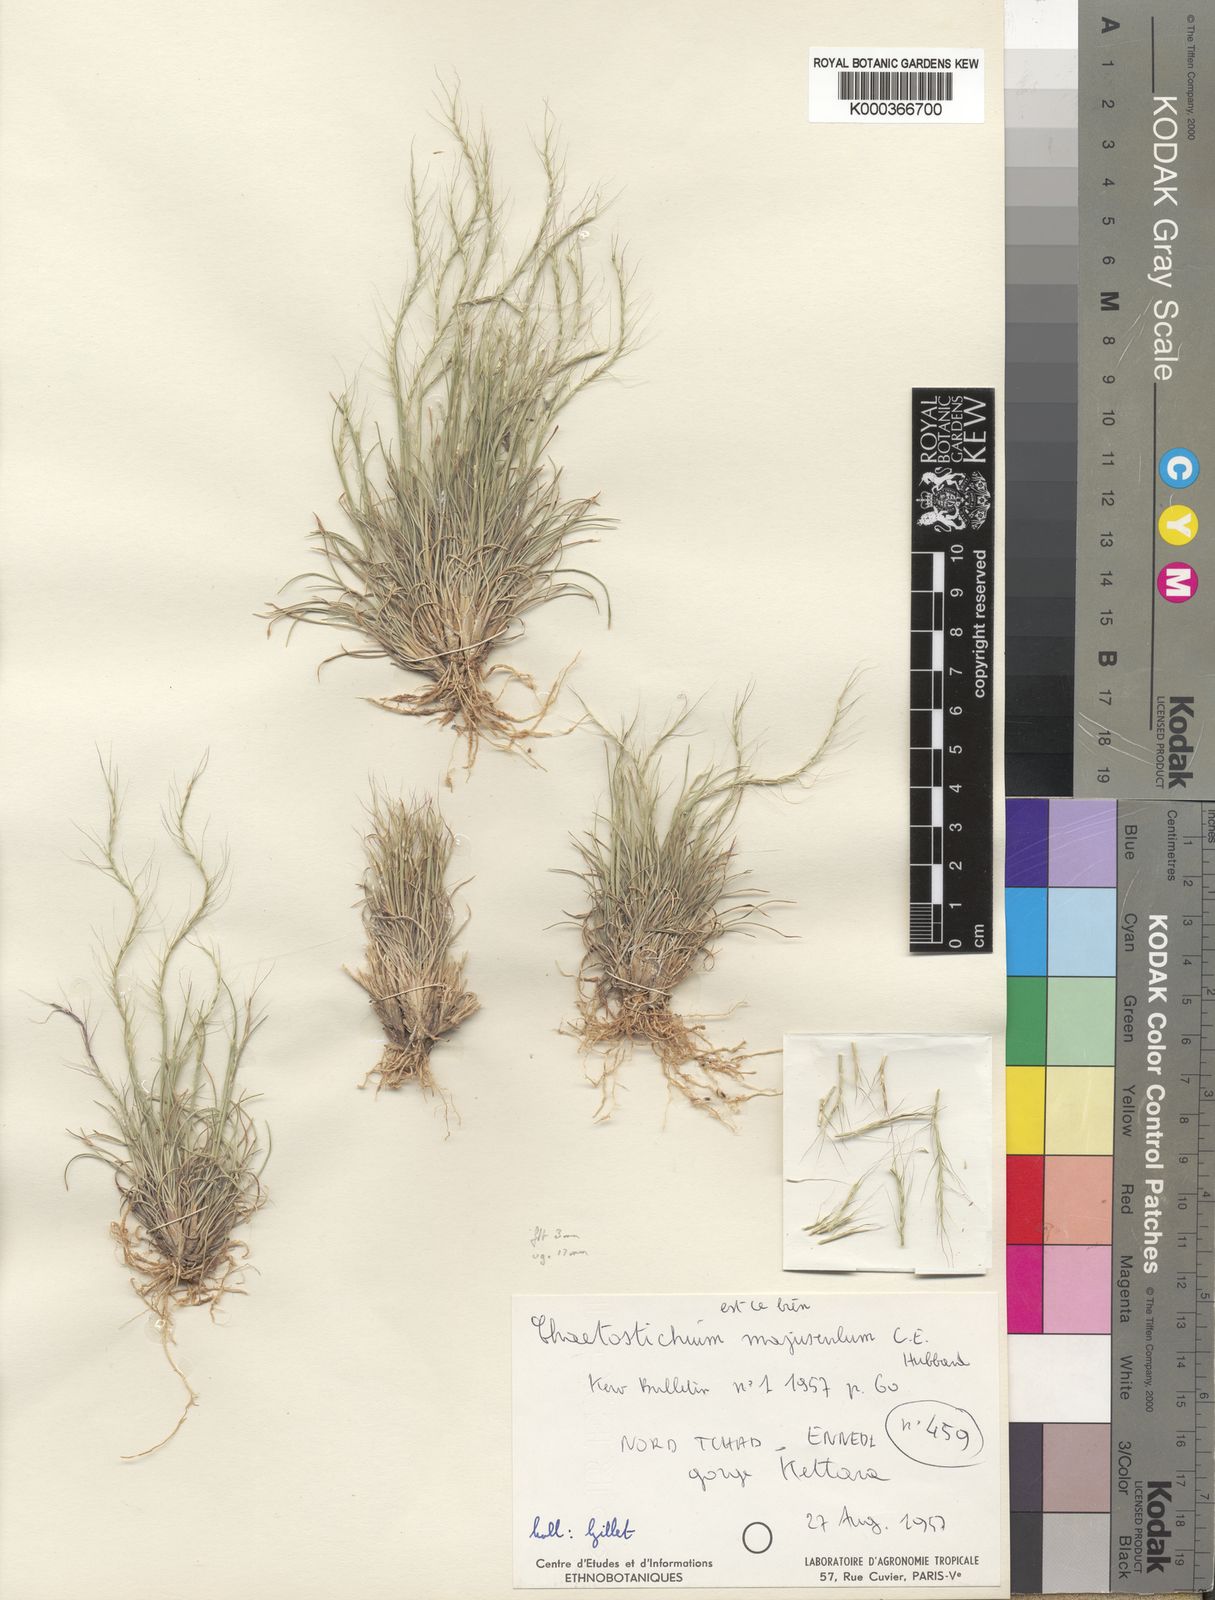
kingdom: Plantae
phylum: Tracheophyta
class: Liliopsida
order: Poales
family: Poaceae
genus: Oropetium
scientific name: Oropetium minimum
